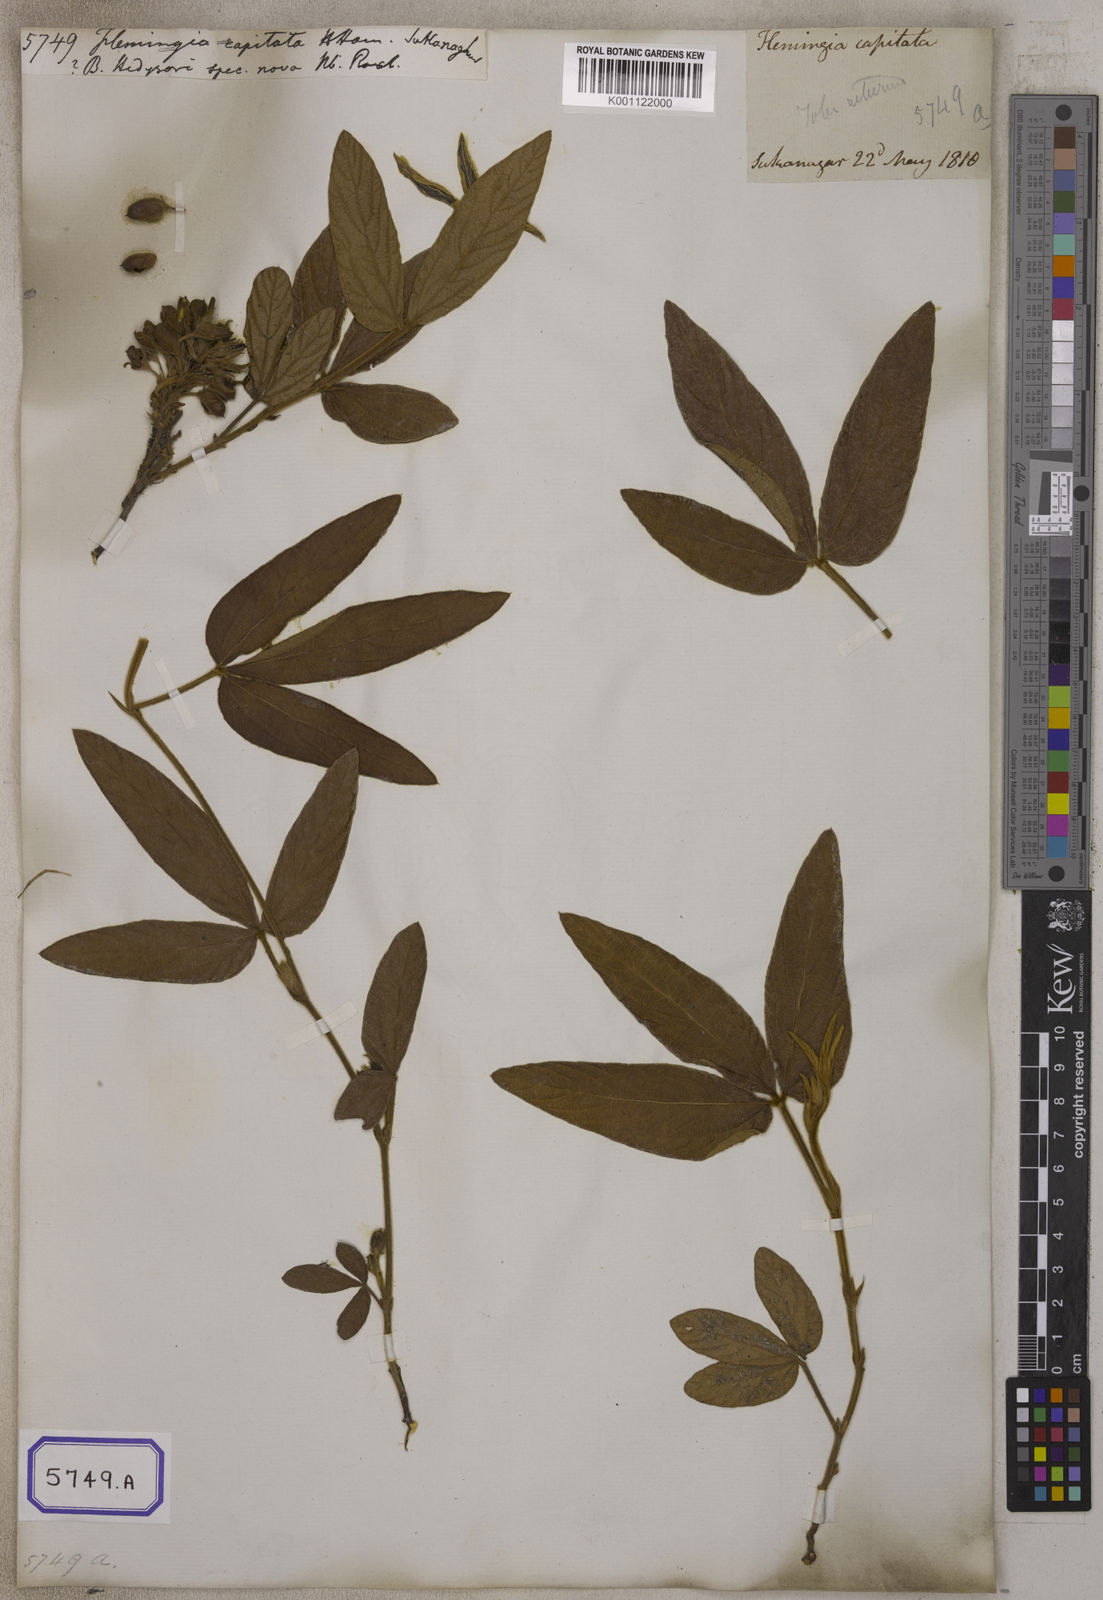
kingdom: Plantae
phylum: Tracheophyta
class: Magnoliopsida
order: Fabales
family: Fabaceae
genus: Flemingia
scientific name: Flemingia
